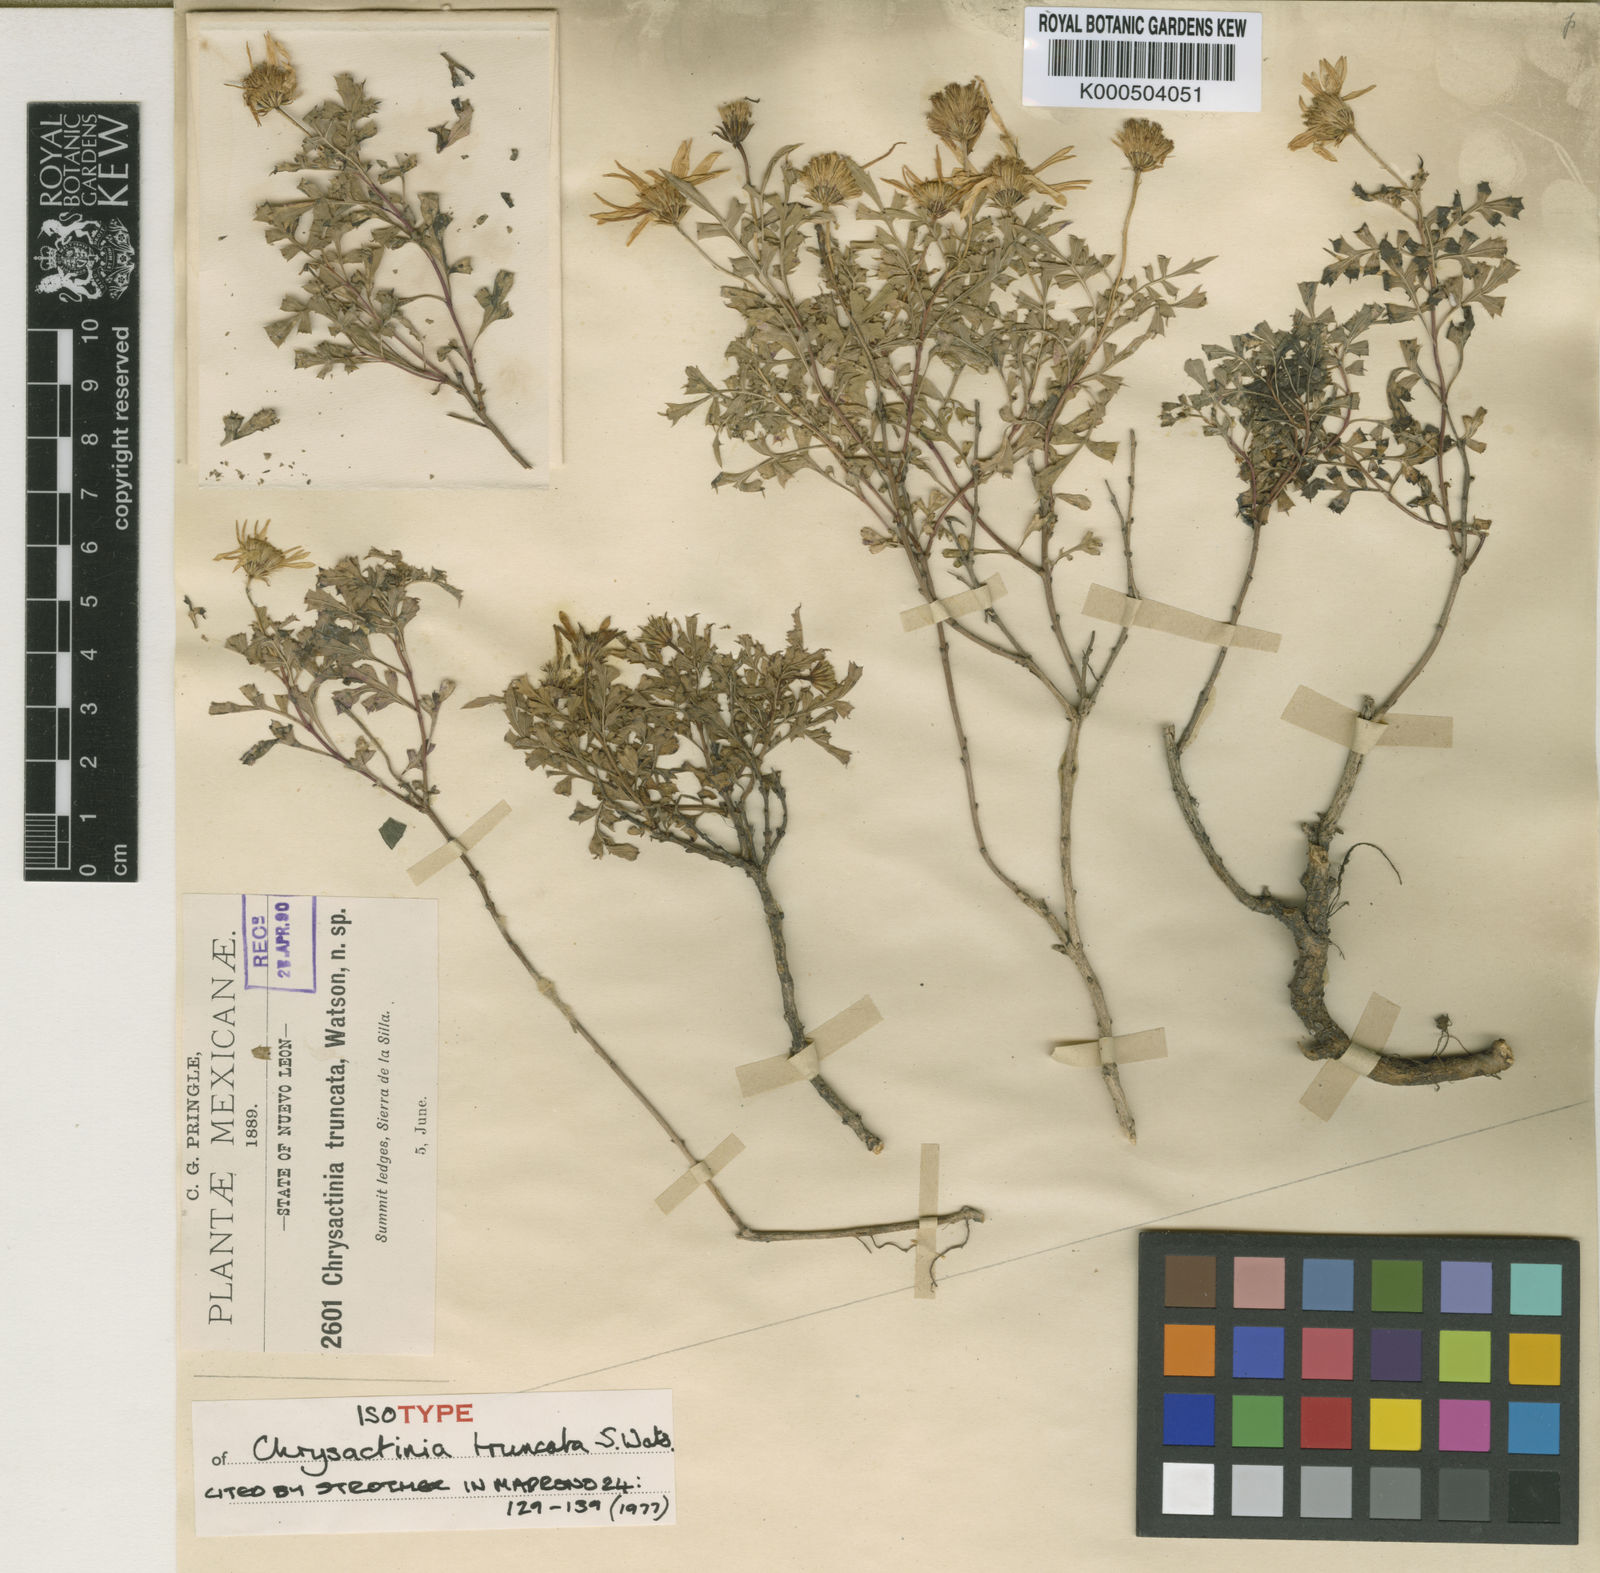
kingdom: Plantae
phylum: Tracheophyta
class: Magnoliopsida
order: Asterales
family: Asteraceae
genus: Chrysactinia
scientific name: Chrysactinia truncata
